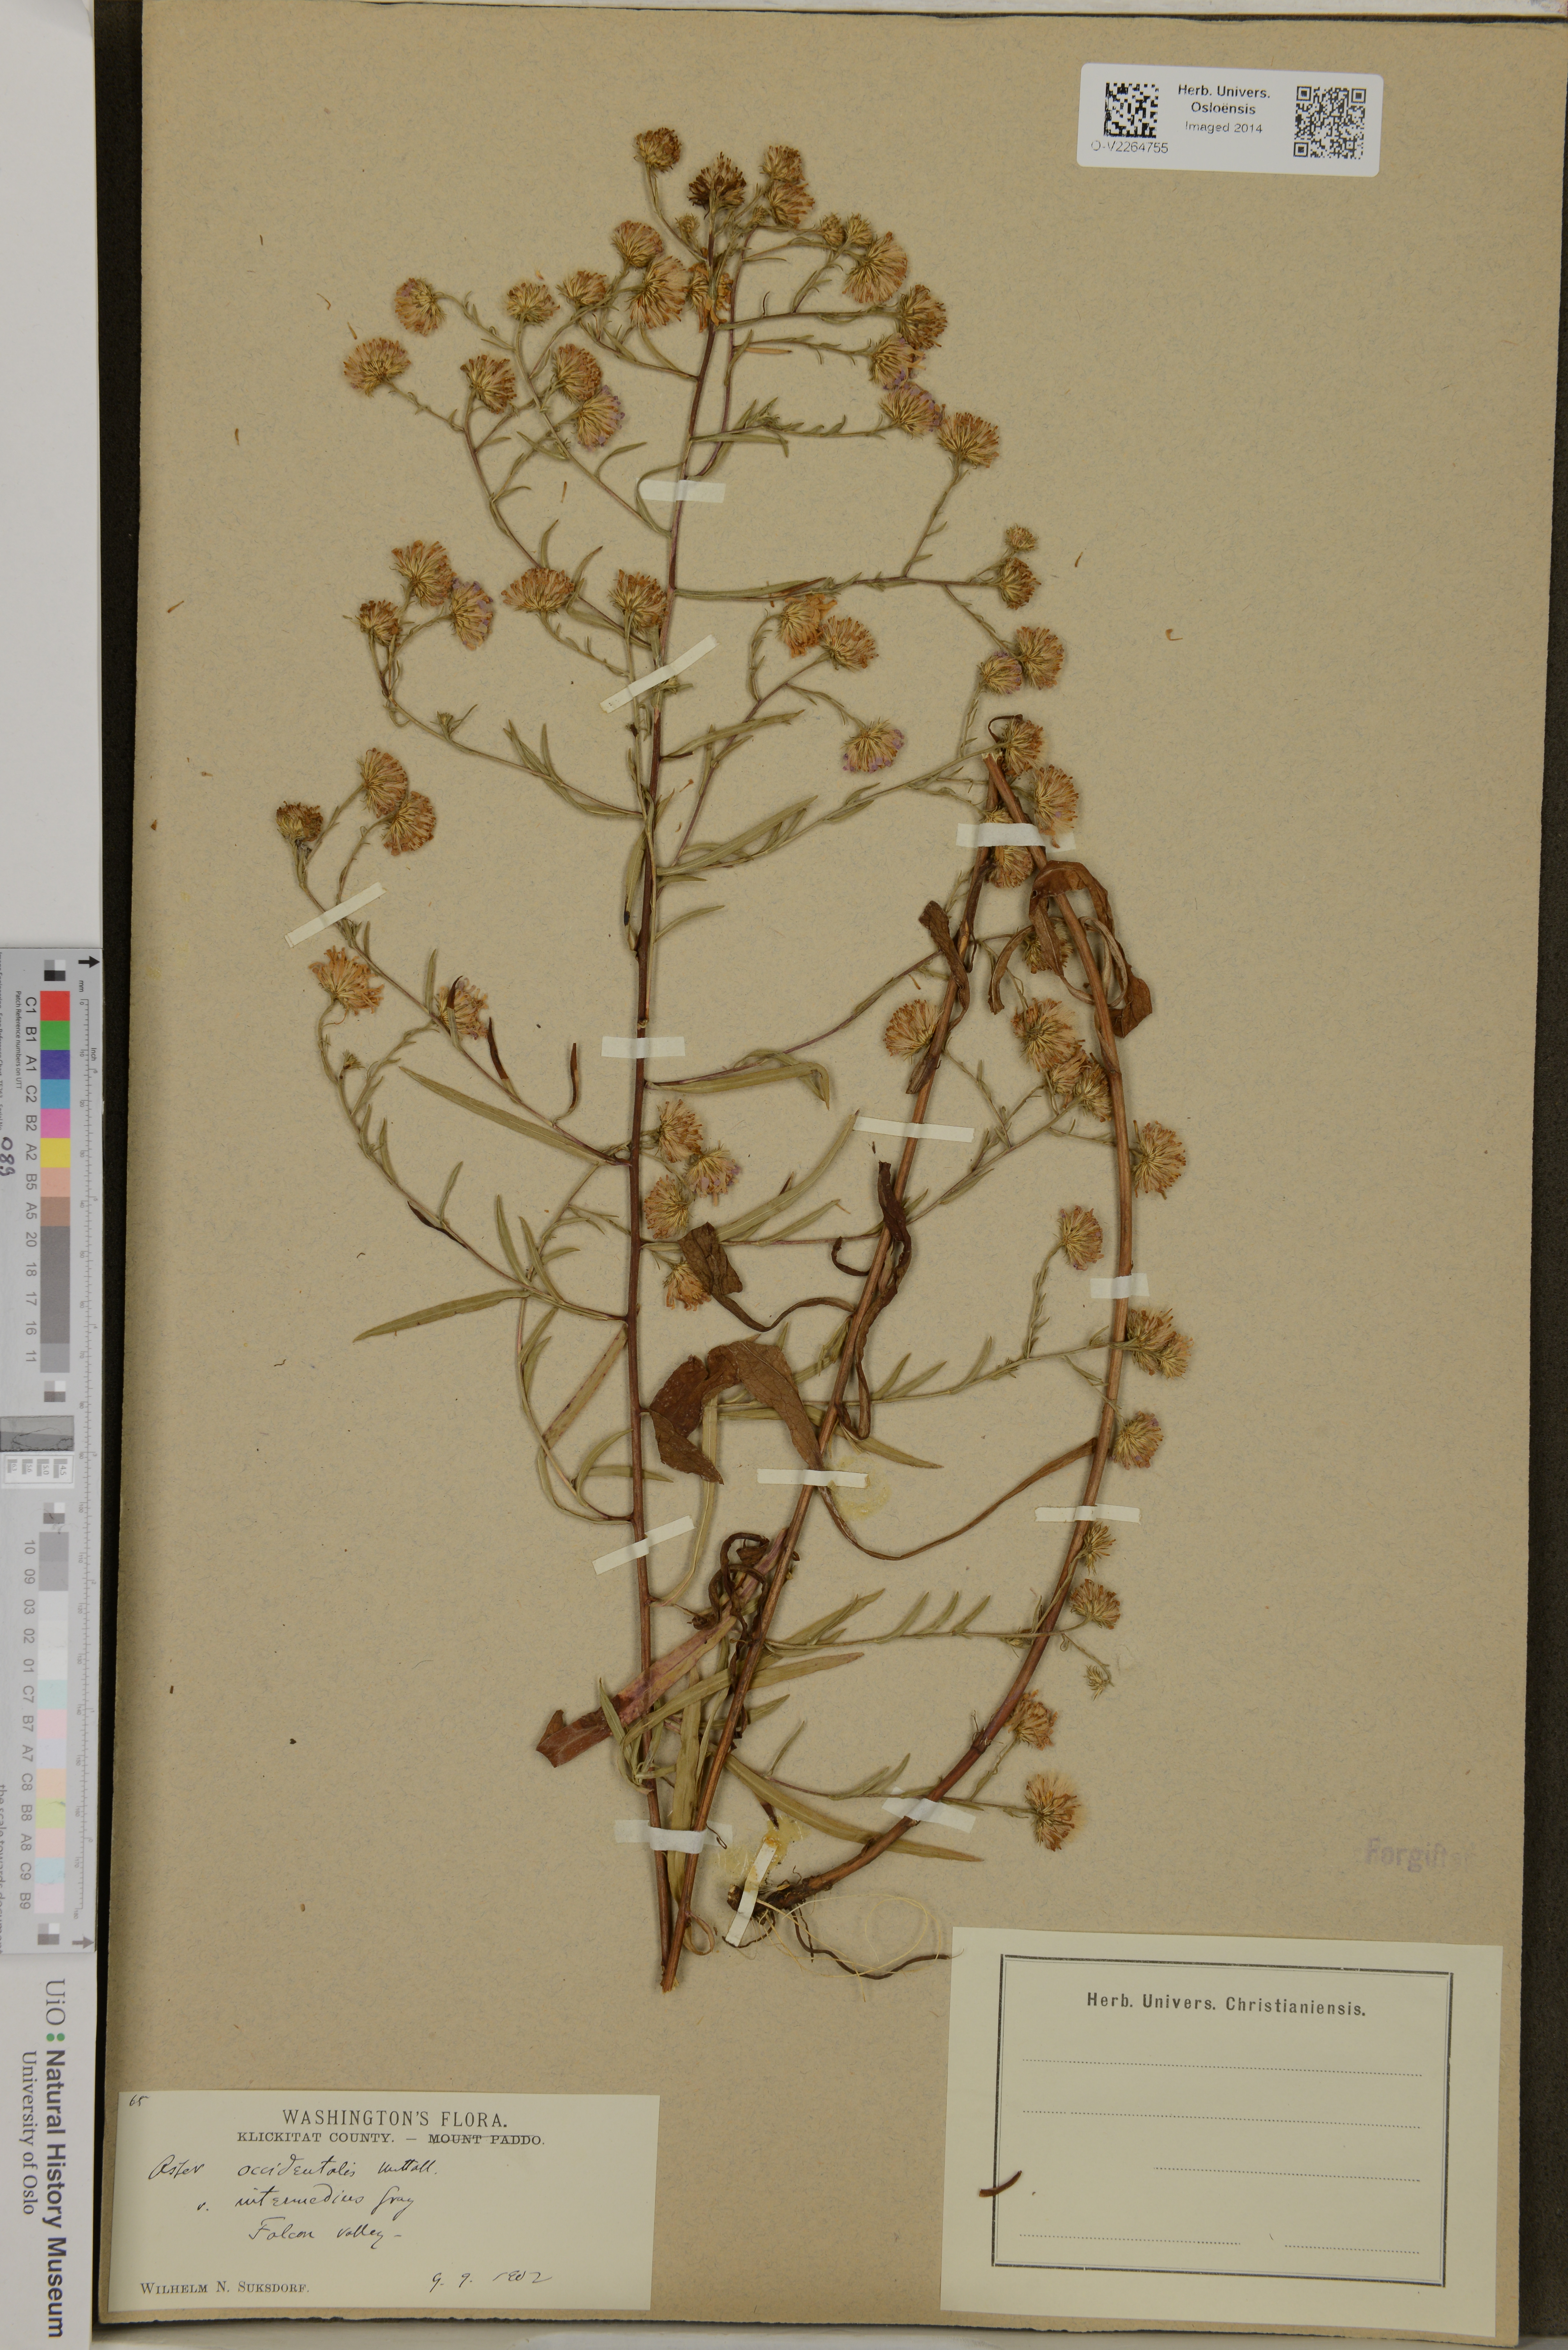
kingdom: Plantae
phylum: Tracheophyta
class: Magnoliopsida
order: Asterales
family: Asteraceae
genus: Symphyotrichum
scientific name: Symphyotrichum spathulatum
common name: Western mountain aster
